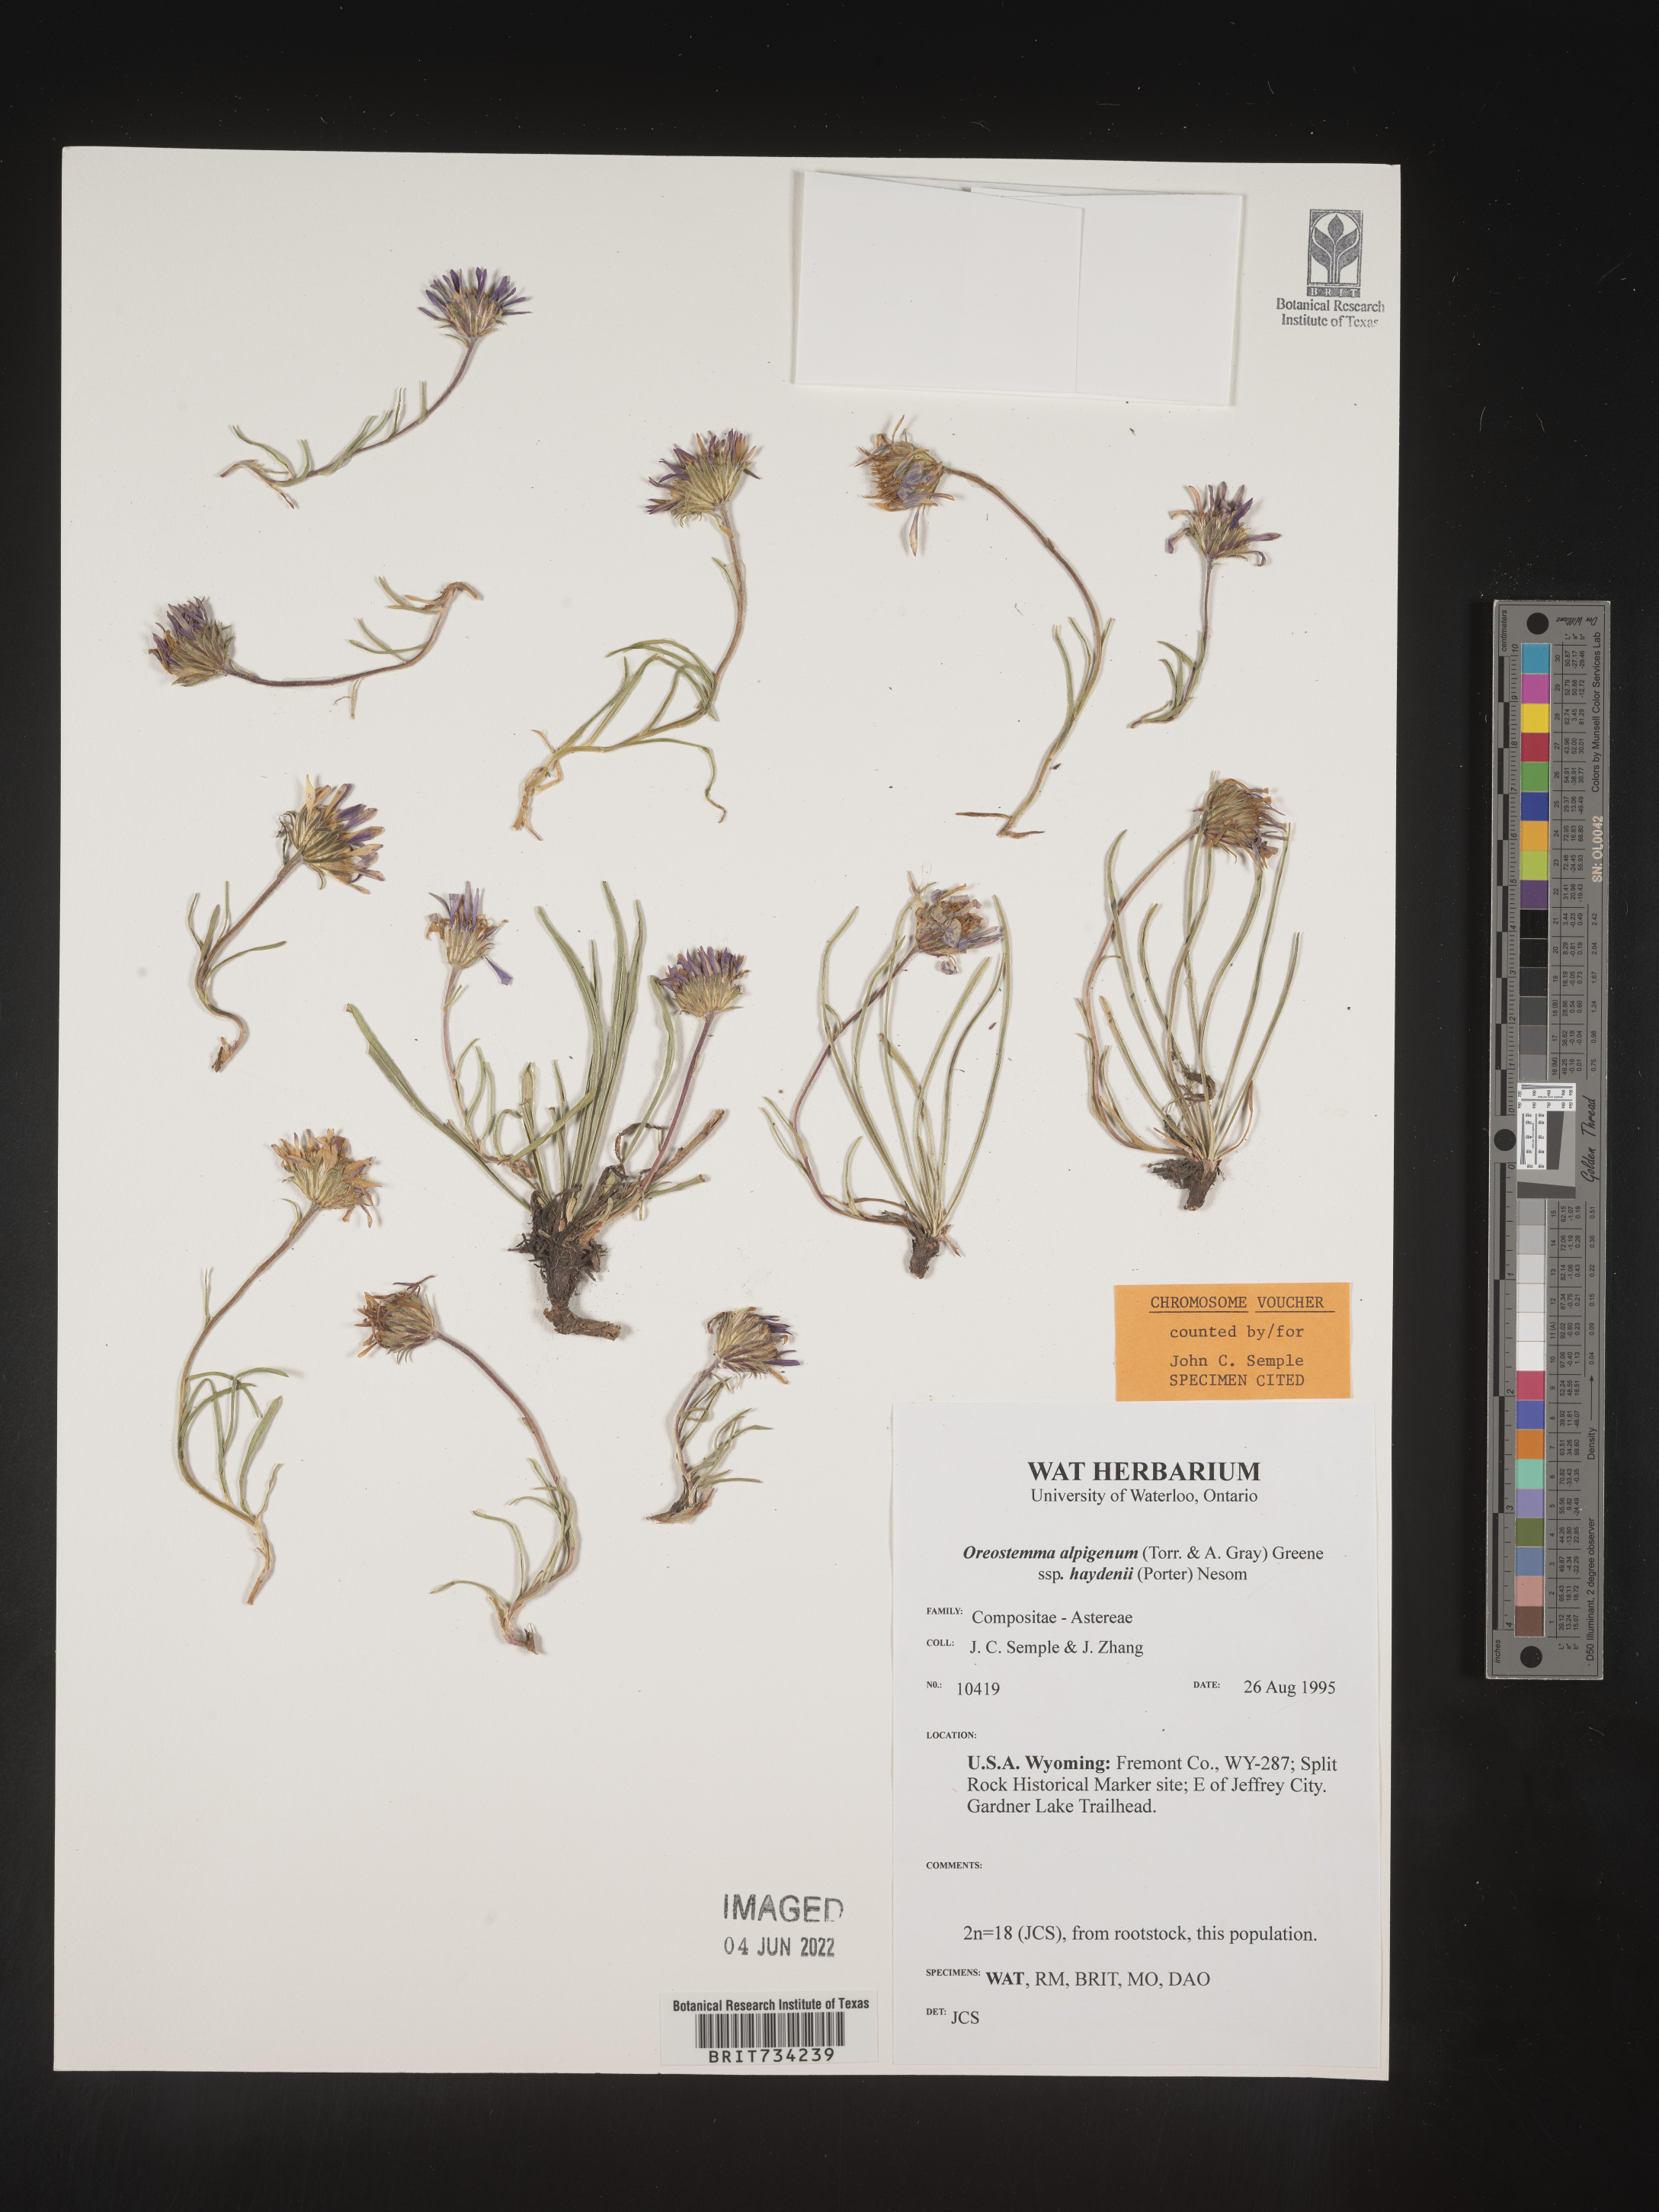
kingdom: Plantae
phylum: Tracheophyta
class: Magnoliopsida
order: Asterales
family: Asteraceae
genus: Oreostemma
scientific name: Oreostemma alpigenum
